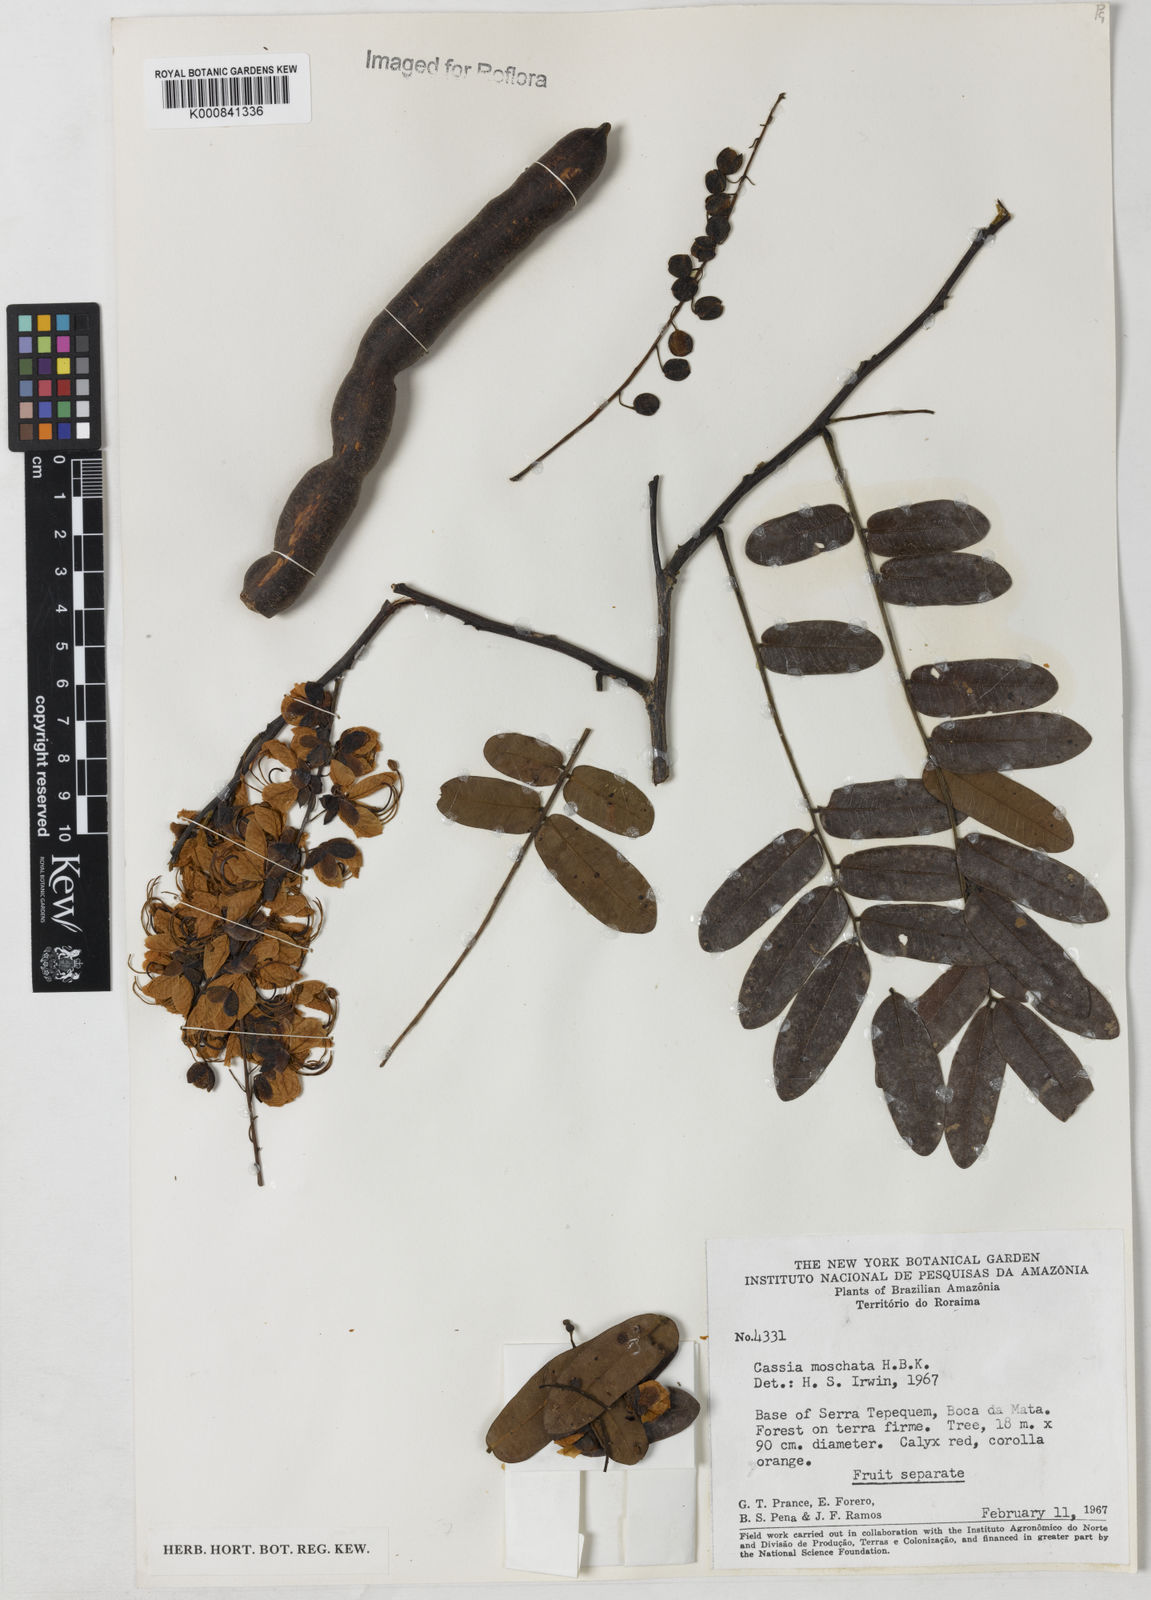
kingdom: Plantae
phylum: Tracheophyta
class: Magnoliopsida
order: Fabales
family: Fabaceae
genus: Cassia
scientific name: Cassia moschata
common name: Bronze shower tree
